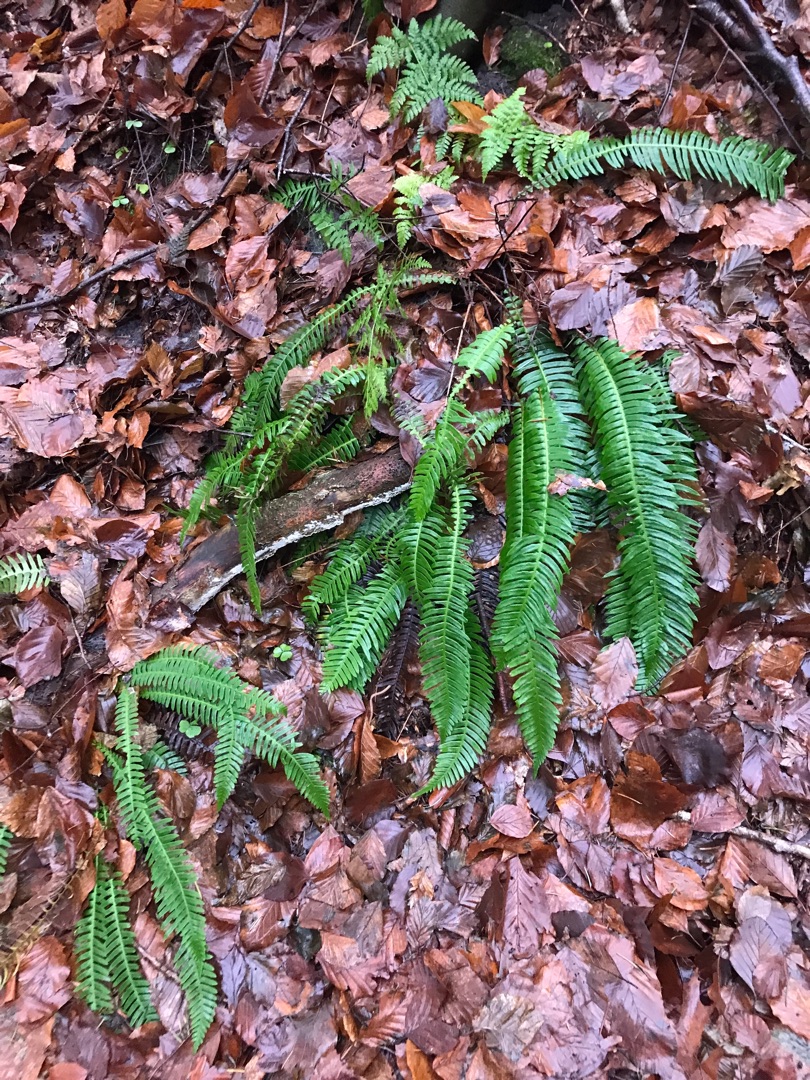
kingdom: Plantae
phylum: Tracheophyta
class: Polypodiopsida
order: Polypodiales
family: Blechnaceae
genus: Struthiopteris
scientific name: Struthiopteris spicant
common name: Kambregne
